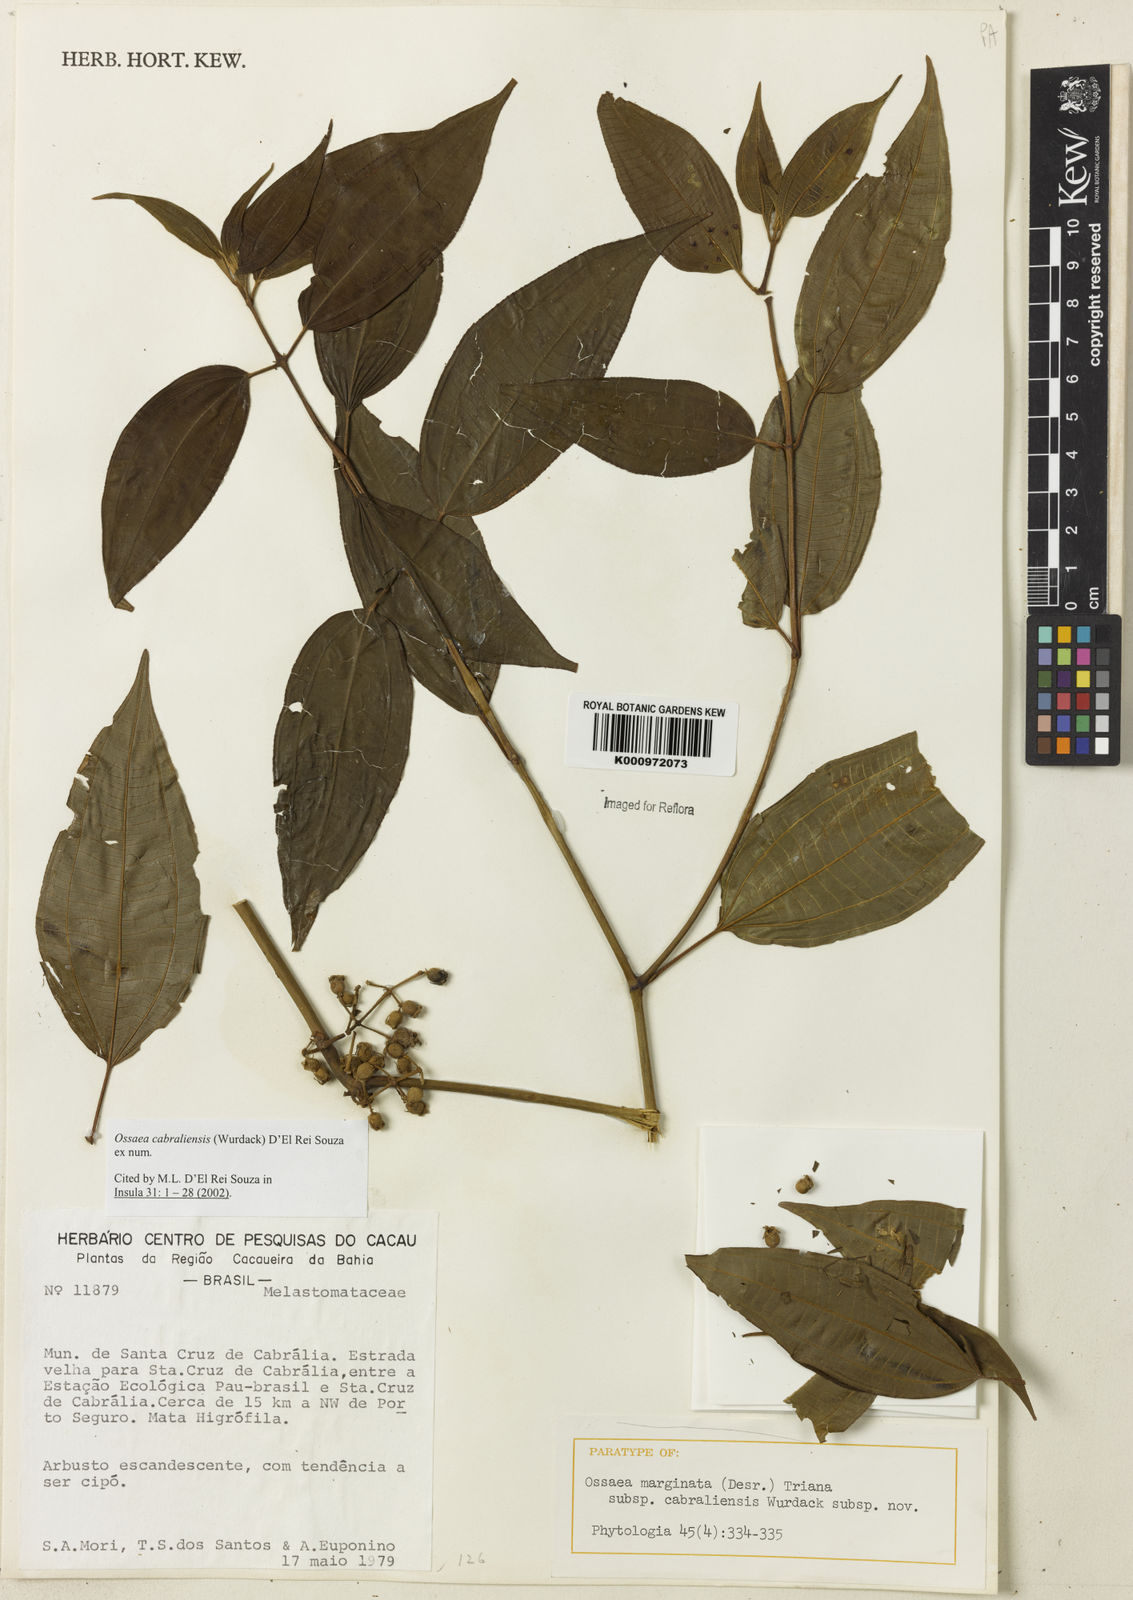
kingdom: Plantae
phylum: Tracheophyta
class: Magnoliopsida
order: Myrtales
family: Melastomataceae
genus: Miconia
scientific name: Miconia cabraliensis
